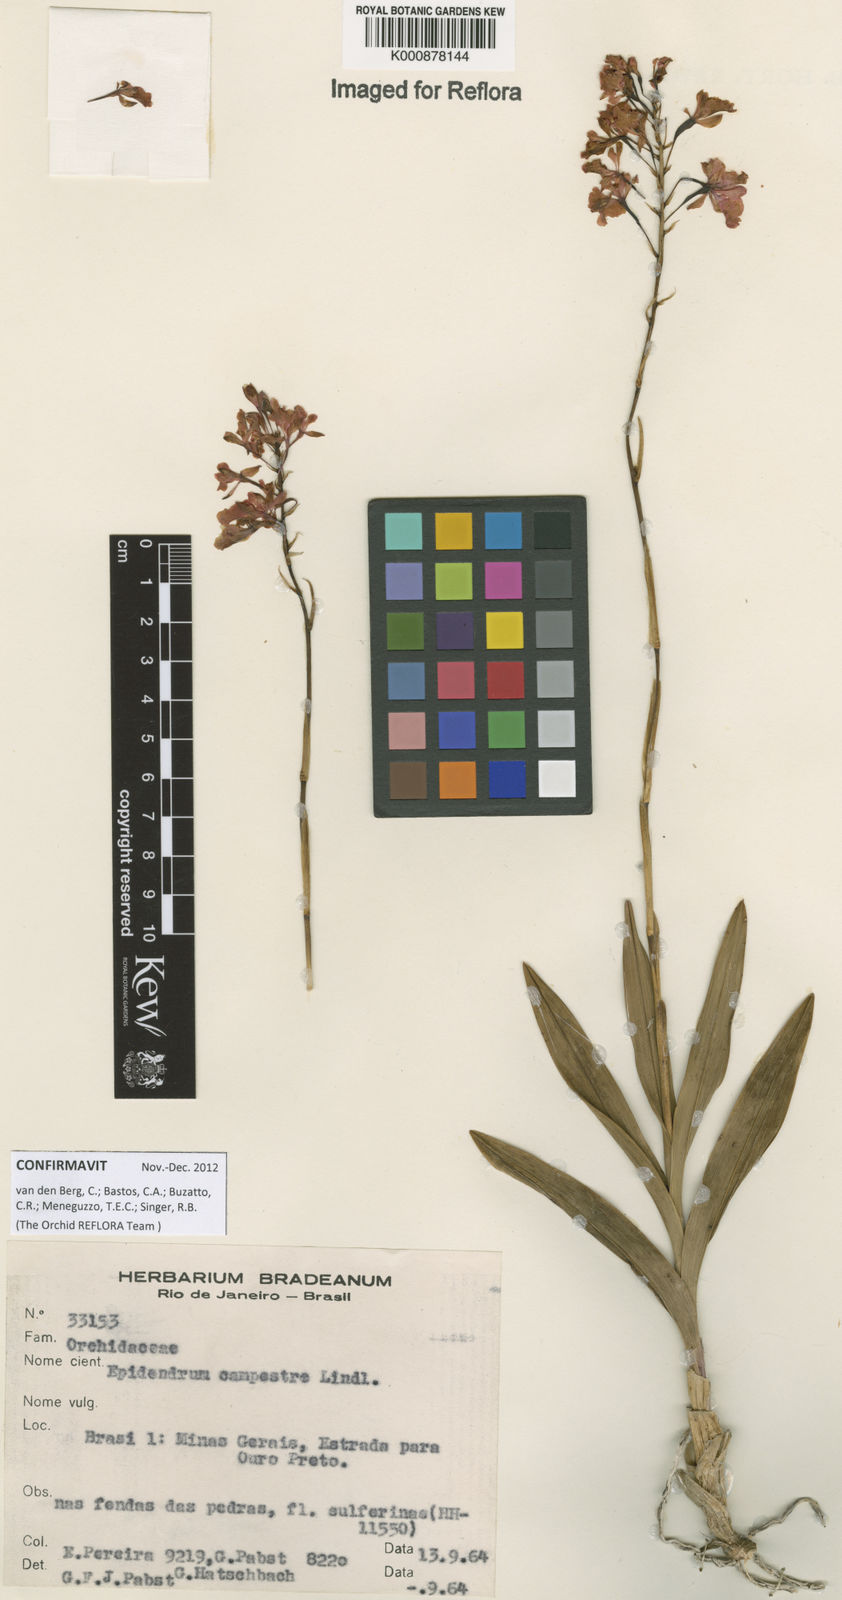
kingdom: Plantae
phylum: Tracheophyta
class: Liliopsida
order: Asparagales
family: Orchidaceae
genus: Epidendrum
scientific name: Epidendrum campestre
